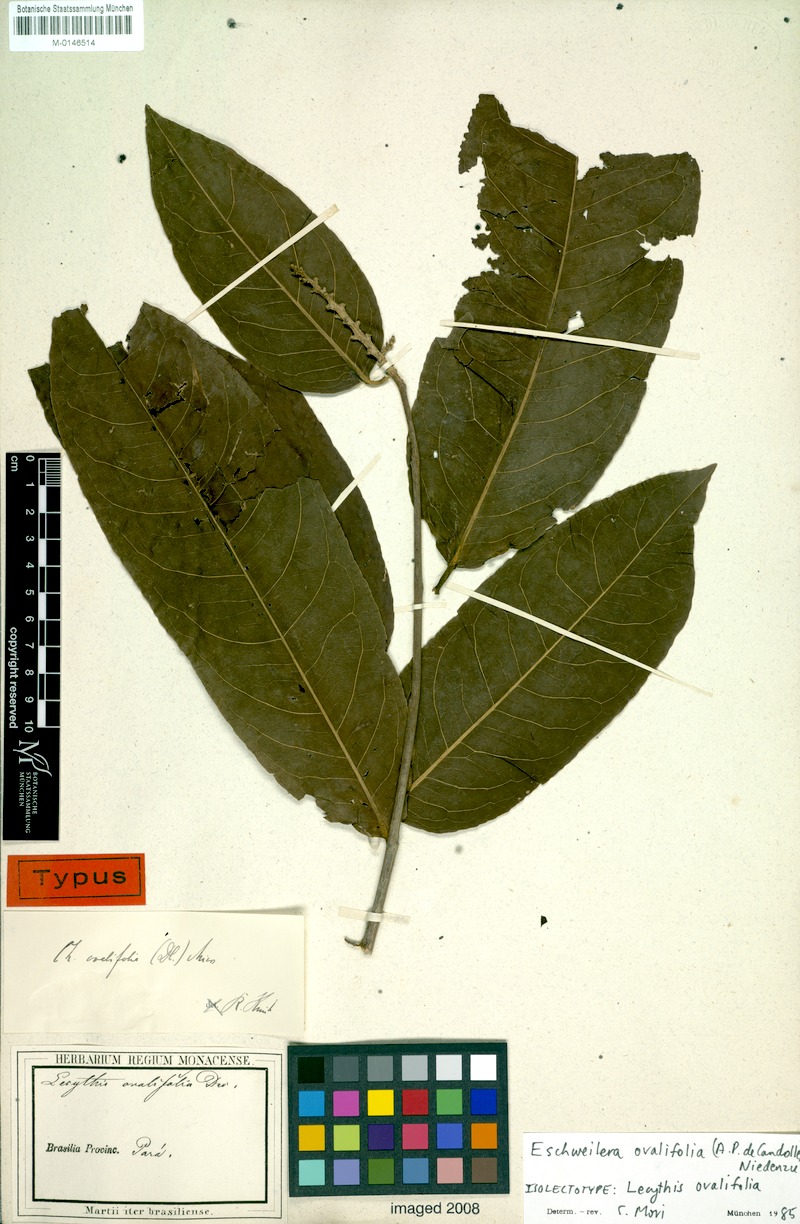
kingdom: Plantae
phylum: Tracheophyta
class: Magnoliopsida
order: Ericales
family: Lecythidaceae
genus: Eschweilera
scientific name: Eschweilera ovalifolia
